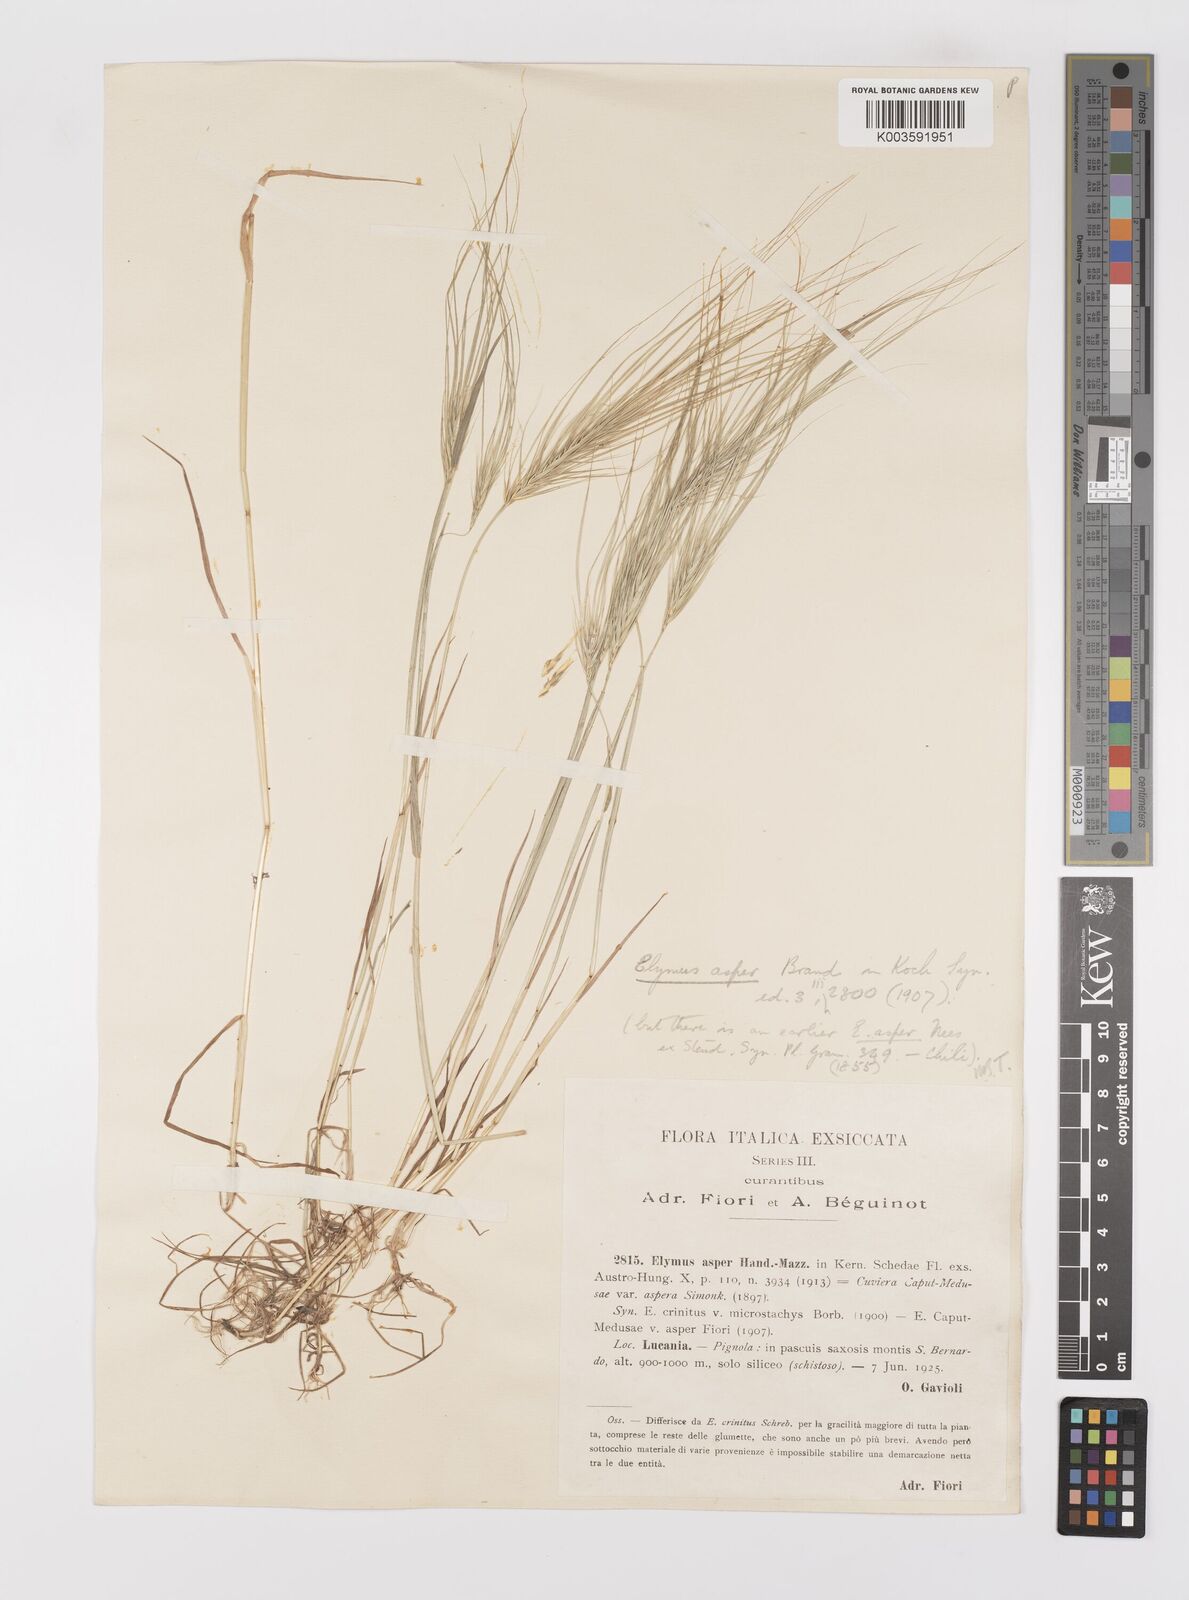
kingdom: Plantae
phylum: Tracheophyta
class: Liliopsida
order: Poales
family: Poaceae
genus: Taeniatherum
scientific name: Taeniatherum caput-medusae
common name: Medusahead
